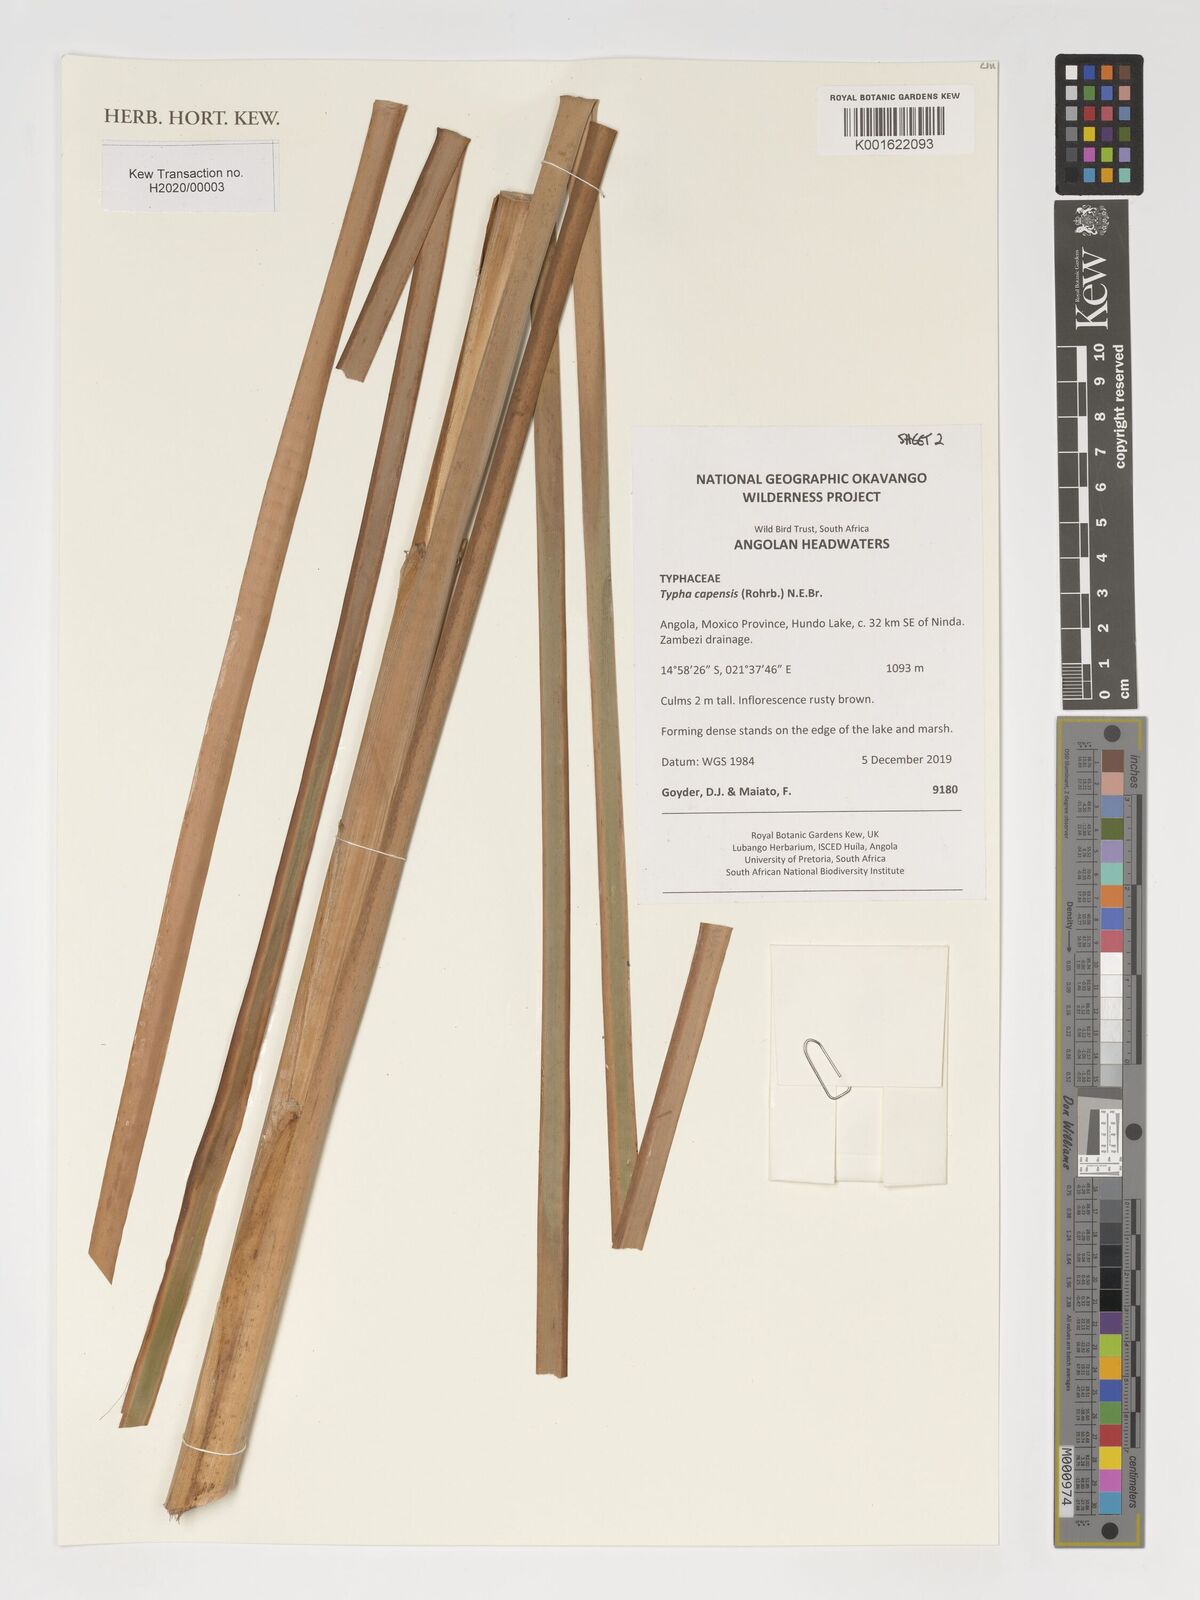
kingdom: Plantae
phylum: Tracheophyta
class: Liliopsida
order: Poales
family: Typhaceae
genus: Typha
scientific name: Typha capensis
